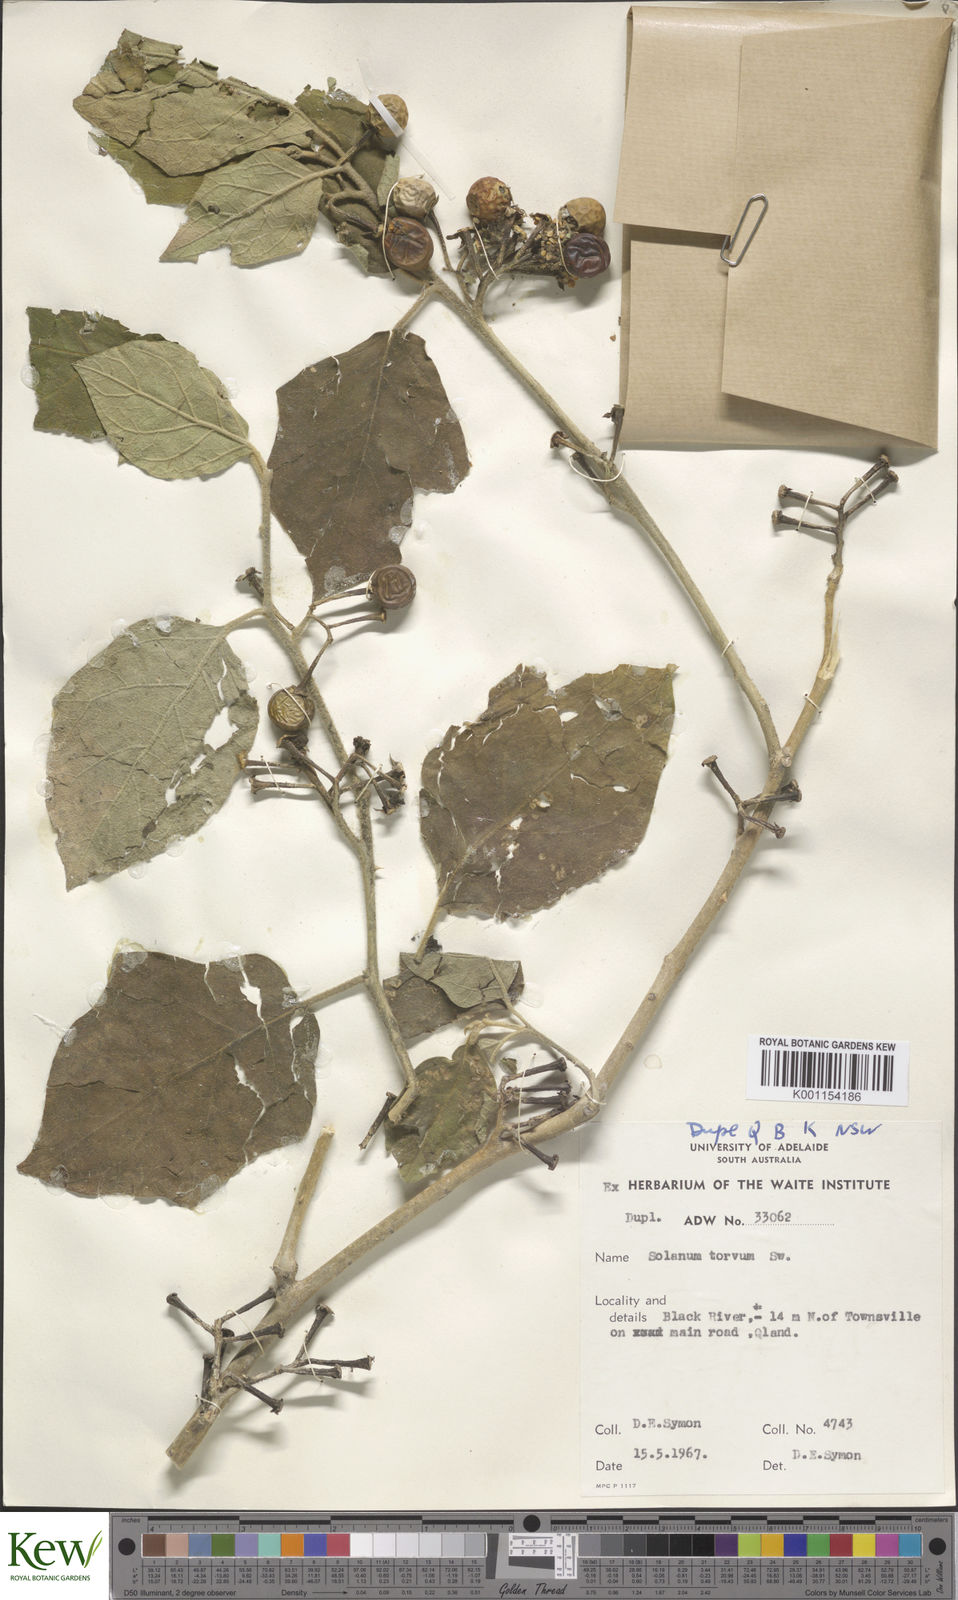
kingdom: Plantae
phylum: Tracheophyta
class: Magnoliopsida
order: Solanales
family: Solanaceae
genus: Solanum
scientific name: Solanum torvum
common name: Turkey berry
